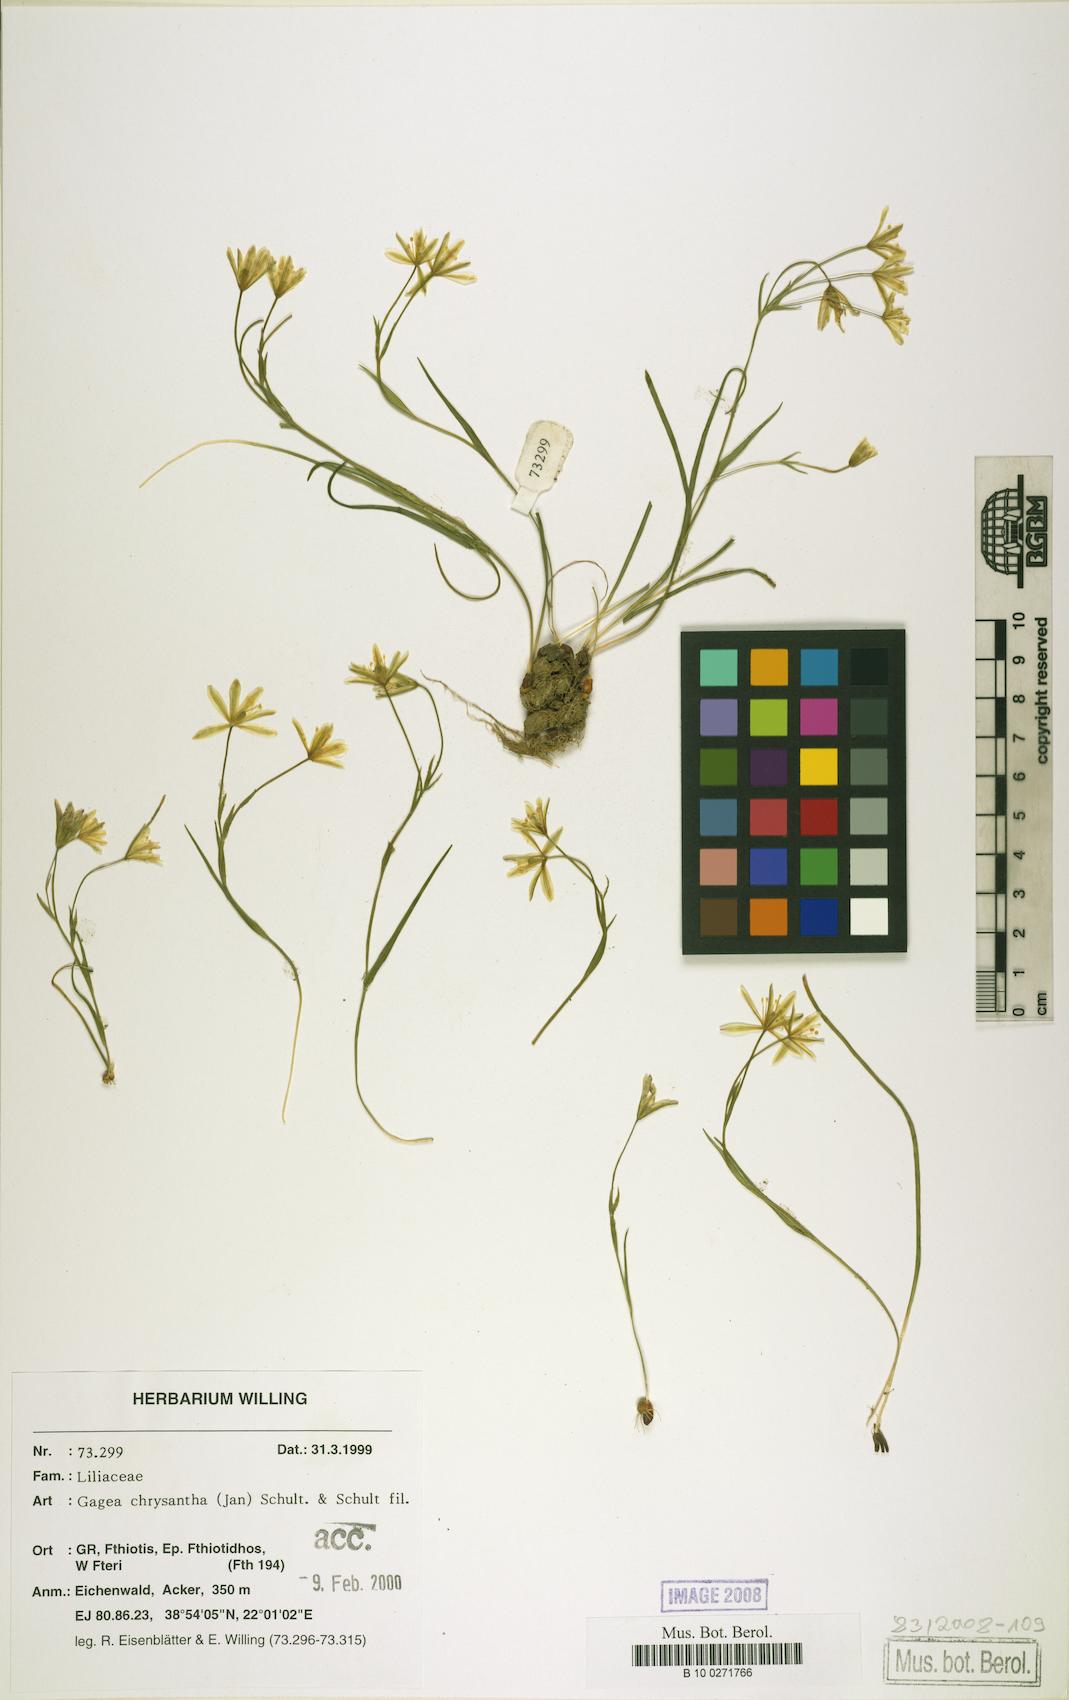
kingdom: Plantae
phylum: Tracheophyta
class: Liliopsida
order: Liliales
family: Liliaceae
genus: Gagea
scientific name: Gagea chrysantha
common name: Golden gagea
